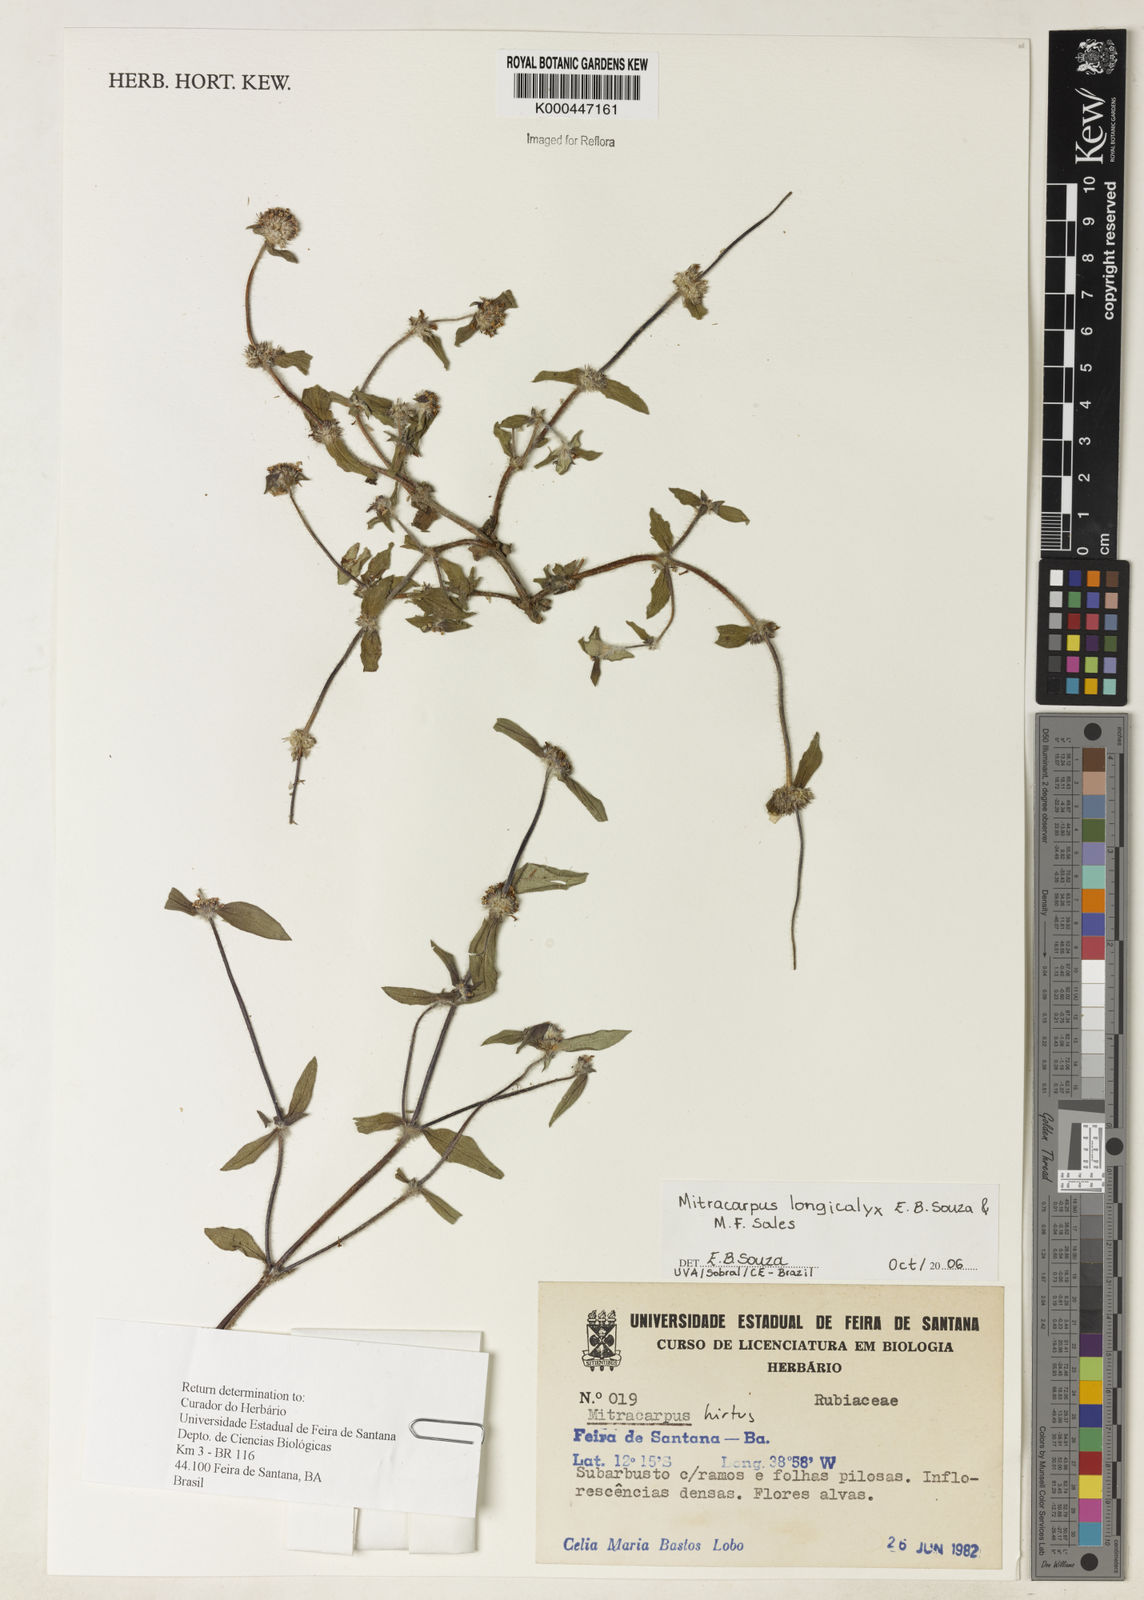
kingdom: Plantae
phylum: Tracheophyta
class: Magnoliopsida
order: Gentianales
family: Rubiaceae
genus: Mitracarpus
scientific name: Mitracarpus longicalyx
